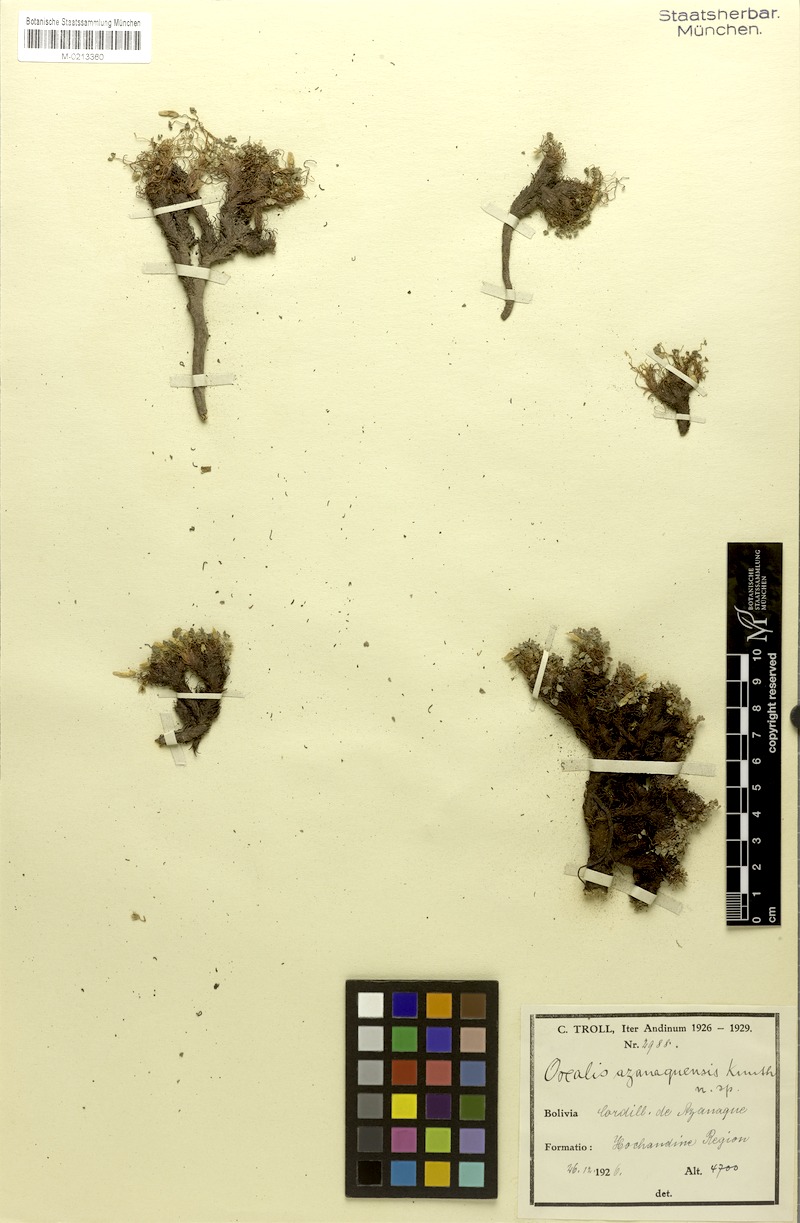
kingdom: Plantae
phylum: Tracheophyta
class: Magnoliopsida
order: Oxalidales
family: Oxalidaceae
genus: Oxalis
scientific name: Oxalis pycnophylla
